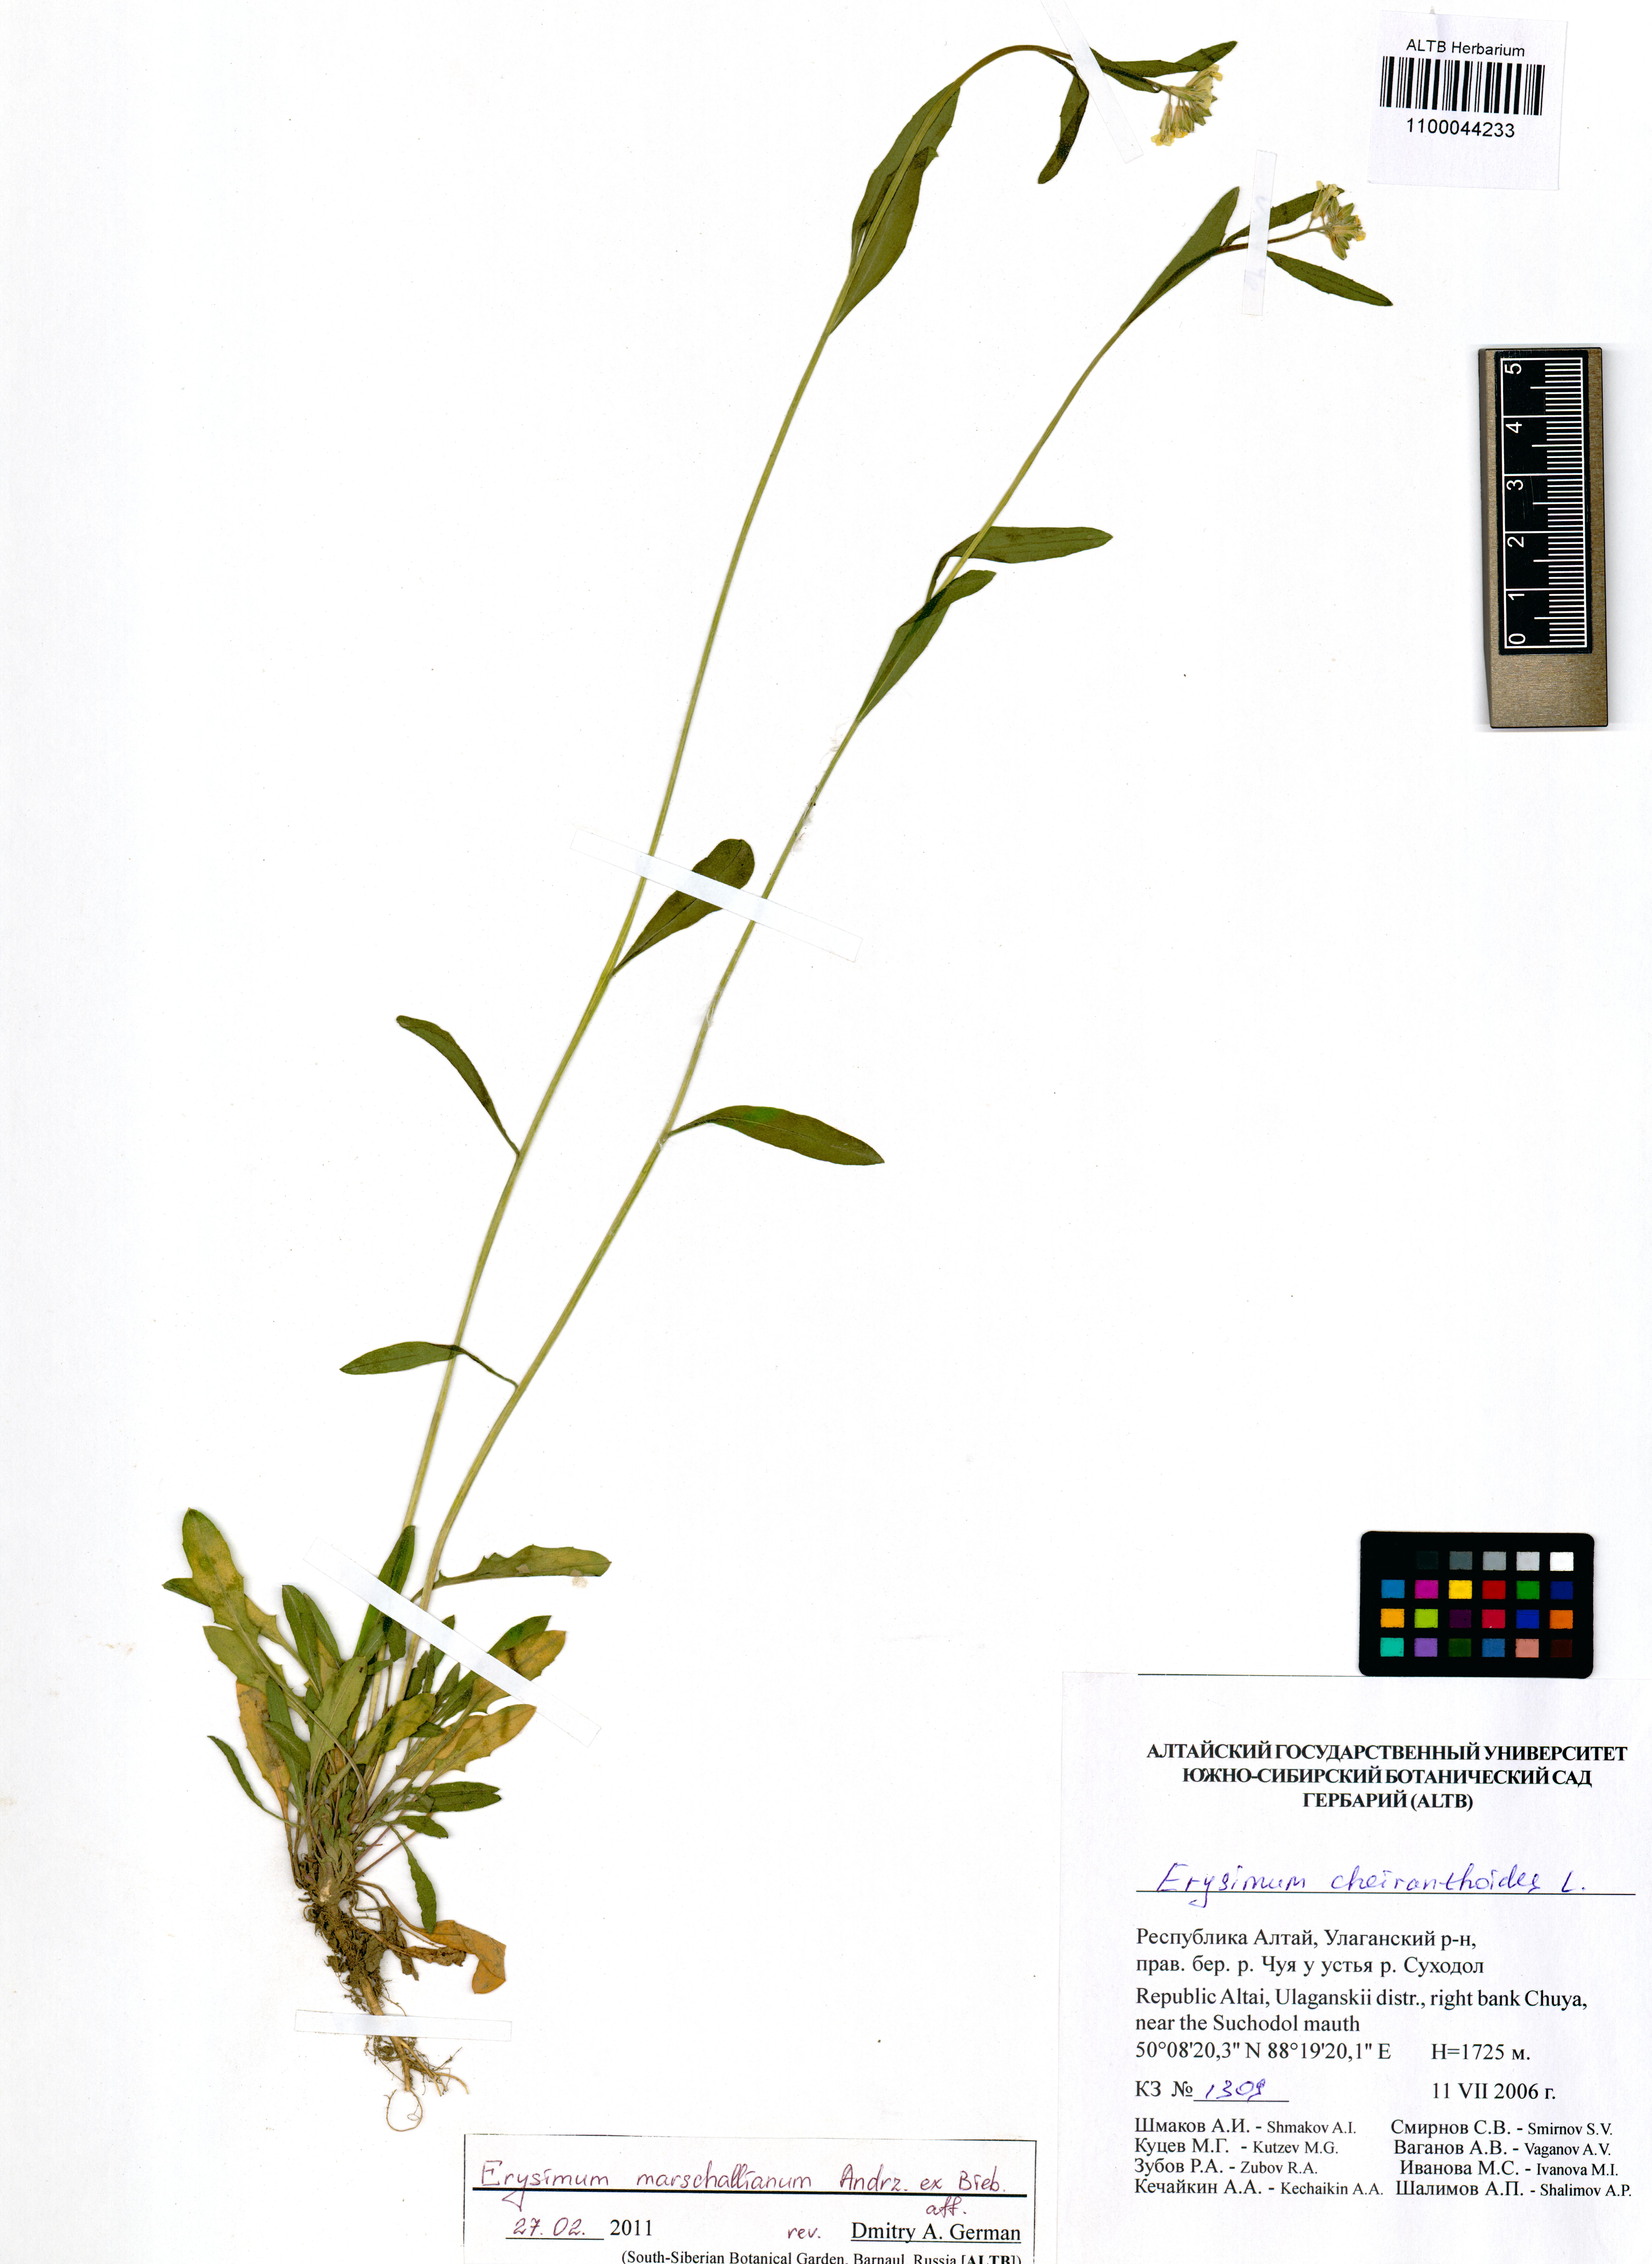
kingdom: Plantae
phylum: Tracheophyta
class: Magnoliopsida
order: Brassicales
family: Brassicaceae
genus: Erysimum
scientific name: Erysimum marschallianum
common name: Hard wallflower
